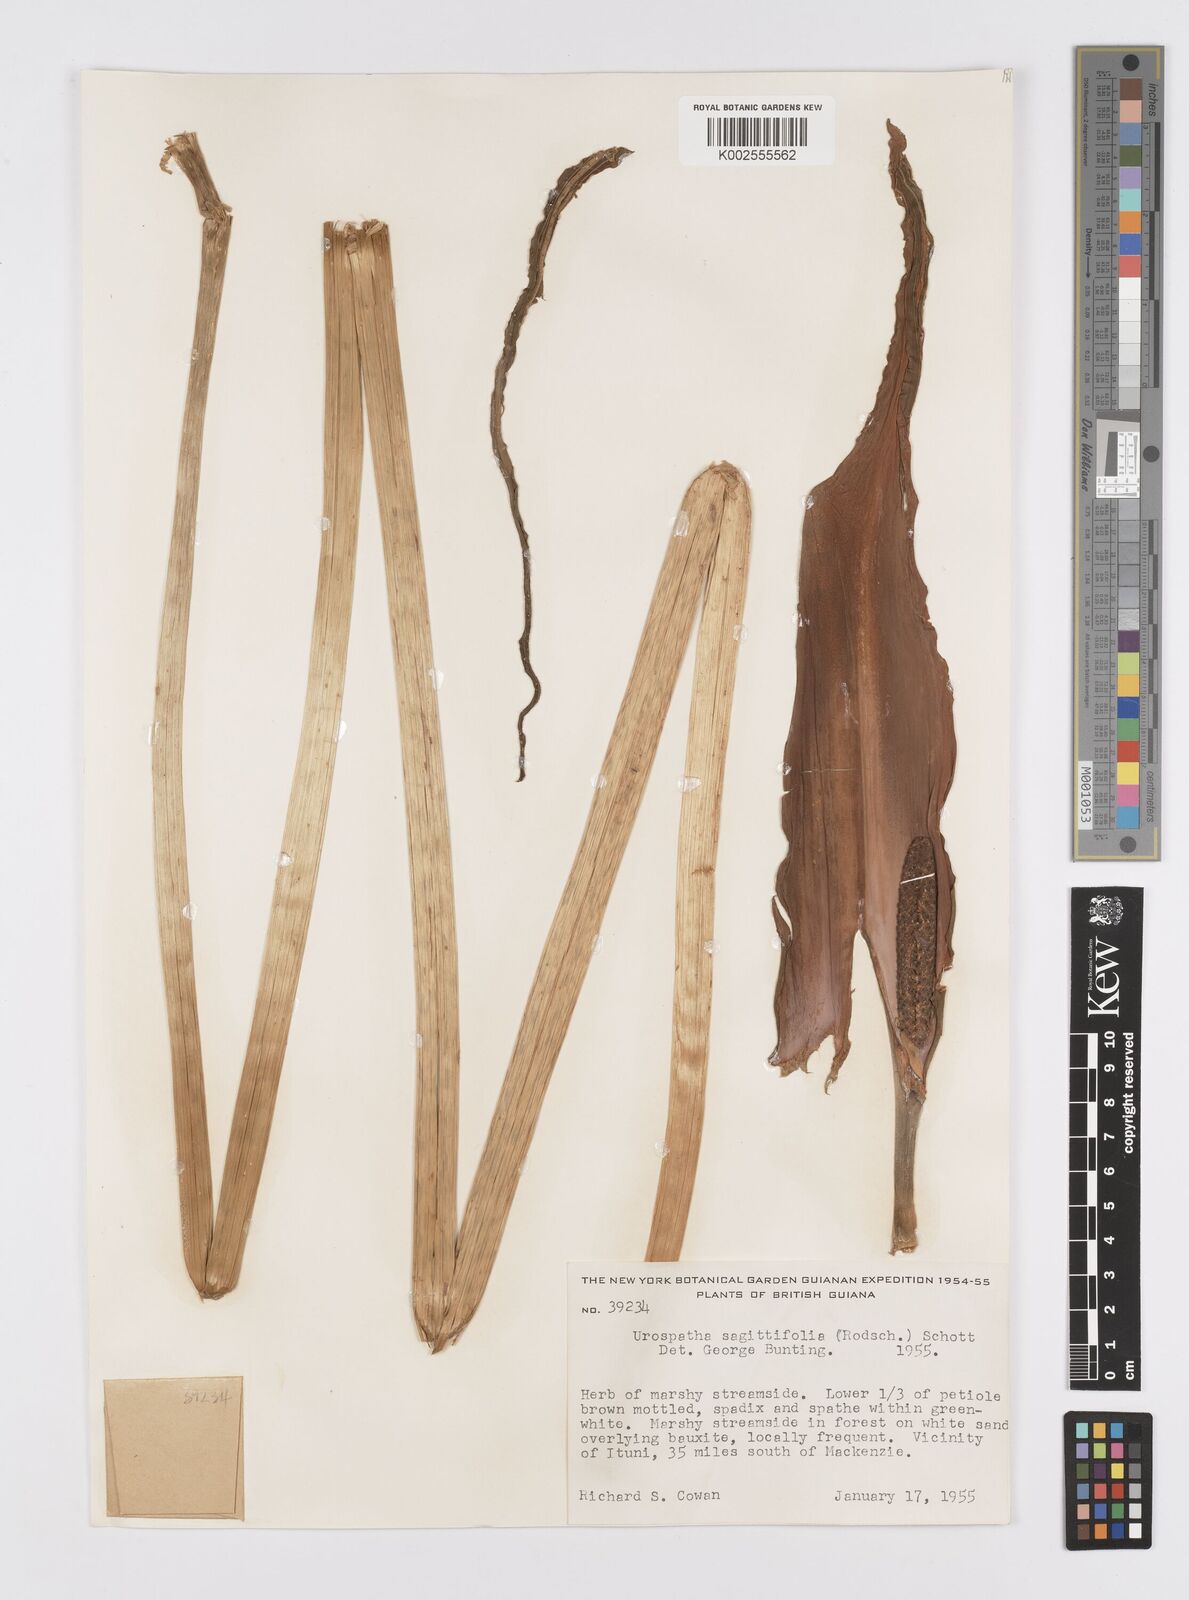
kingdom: Plantae
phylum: Tracheophyta
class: Liliopsida
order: Alismatales
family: Araceae
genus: Urospatha
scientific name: Urospatha sagittifolia
